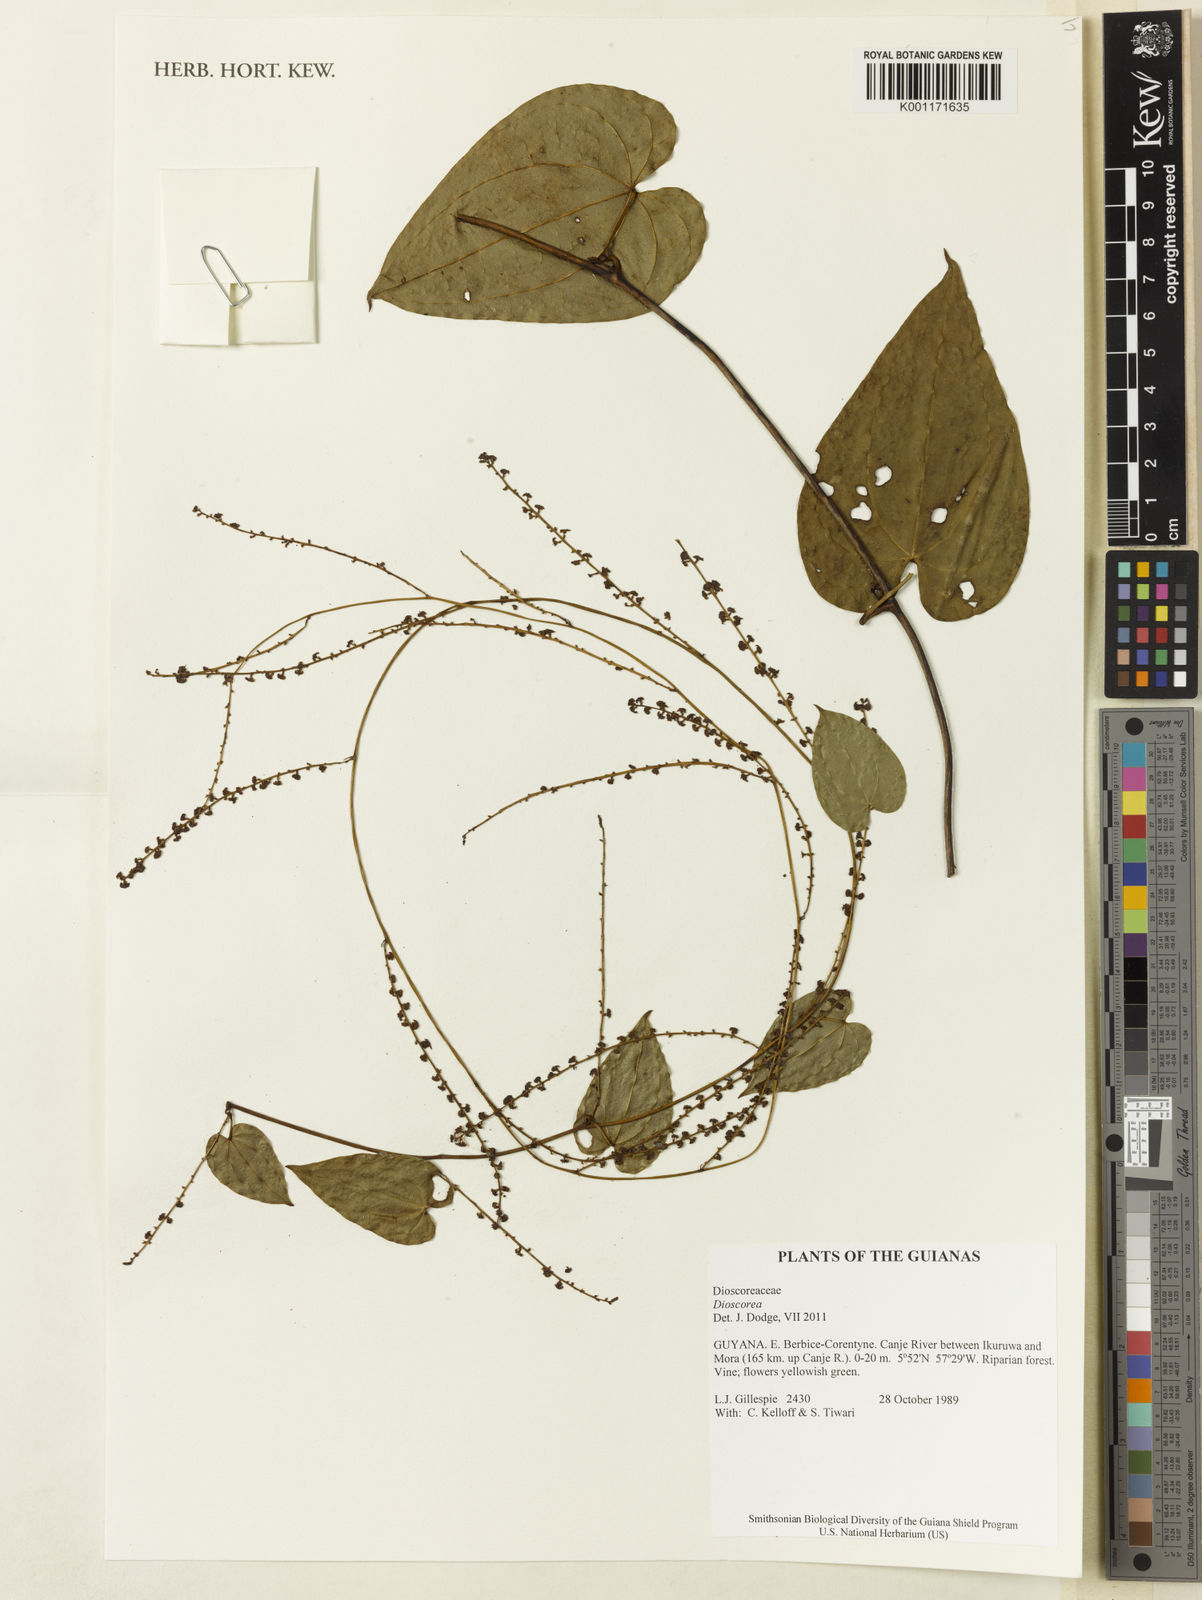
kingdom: Plantae
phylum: Tracheophyta
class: Liliopsida
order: Dioscoreales
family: Dioscoreaceae
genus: Dioscorea
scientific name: Dioscorea amazonum
